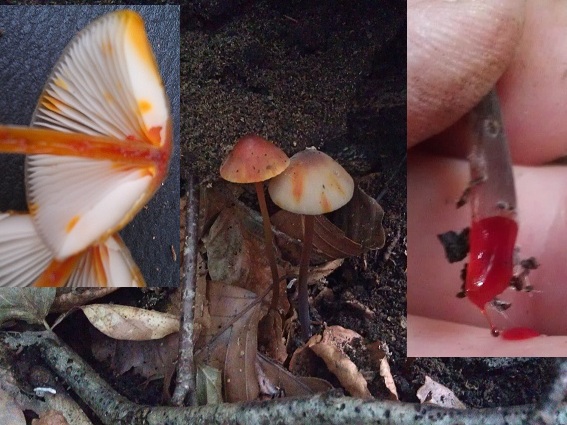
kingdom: Fungi
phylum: Basidiomycota
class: Agaricomycetes
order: Agaricales
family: Mycenaceae
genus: Mycena
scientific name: Mycena crocata
